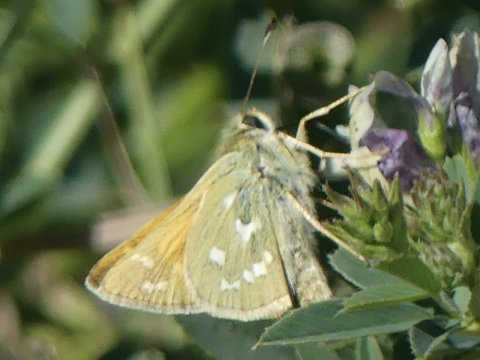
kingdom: Animalia
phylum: Arthropoda
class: Insecta
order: Lepidoptera
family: Hesperiidae
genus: Hesperia
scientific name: Hesperia nevada
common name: Nevada Skipper
